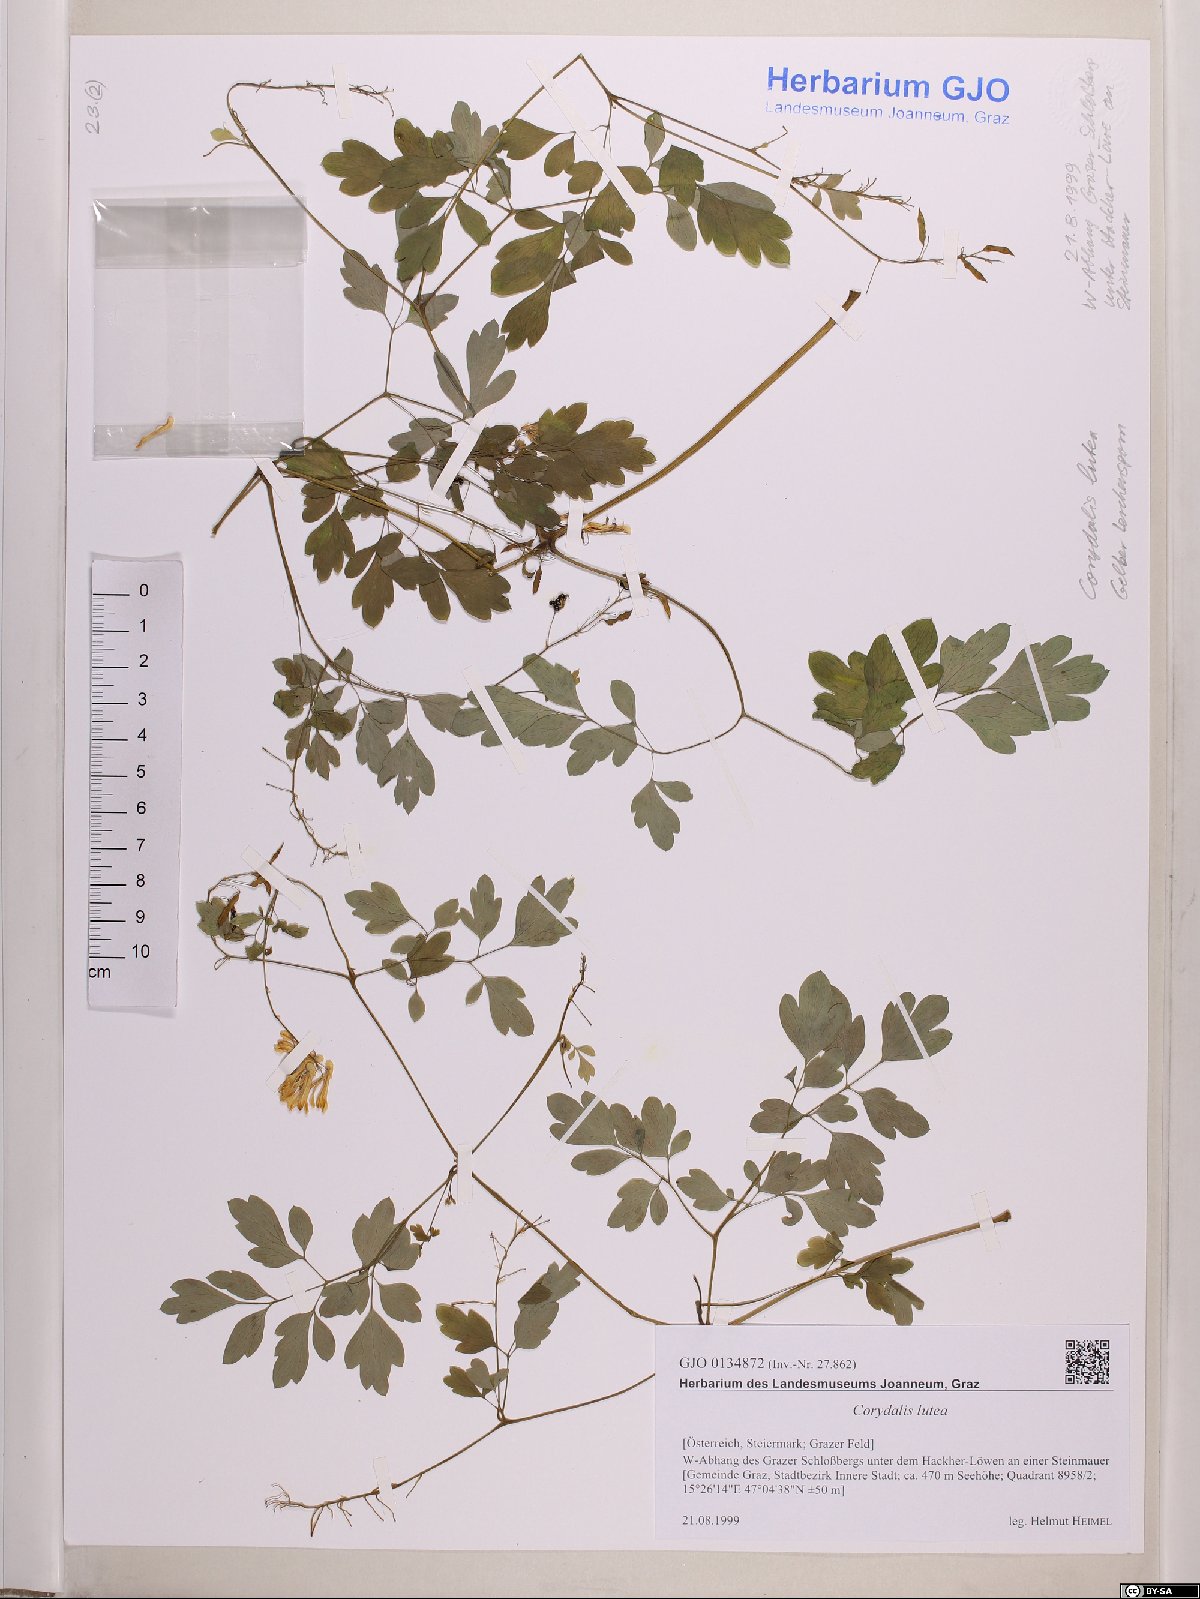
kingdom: Plantae
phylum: Tracheophyta
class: Magnoliopsida
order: Ranunculales
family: Papaveraceae
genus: Pseudofumaria
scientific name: Pseudofumaria lutea
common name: Yellow corydalis
